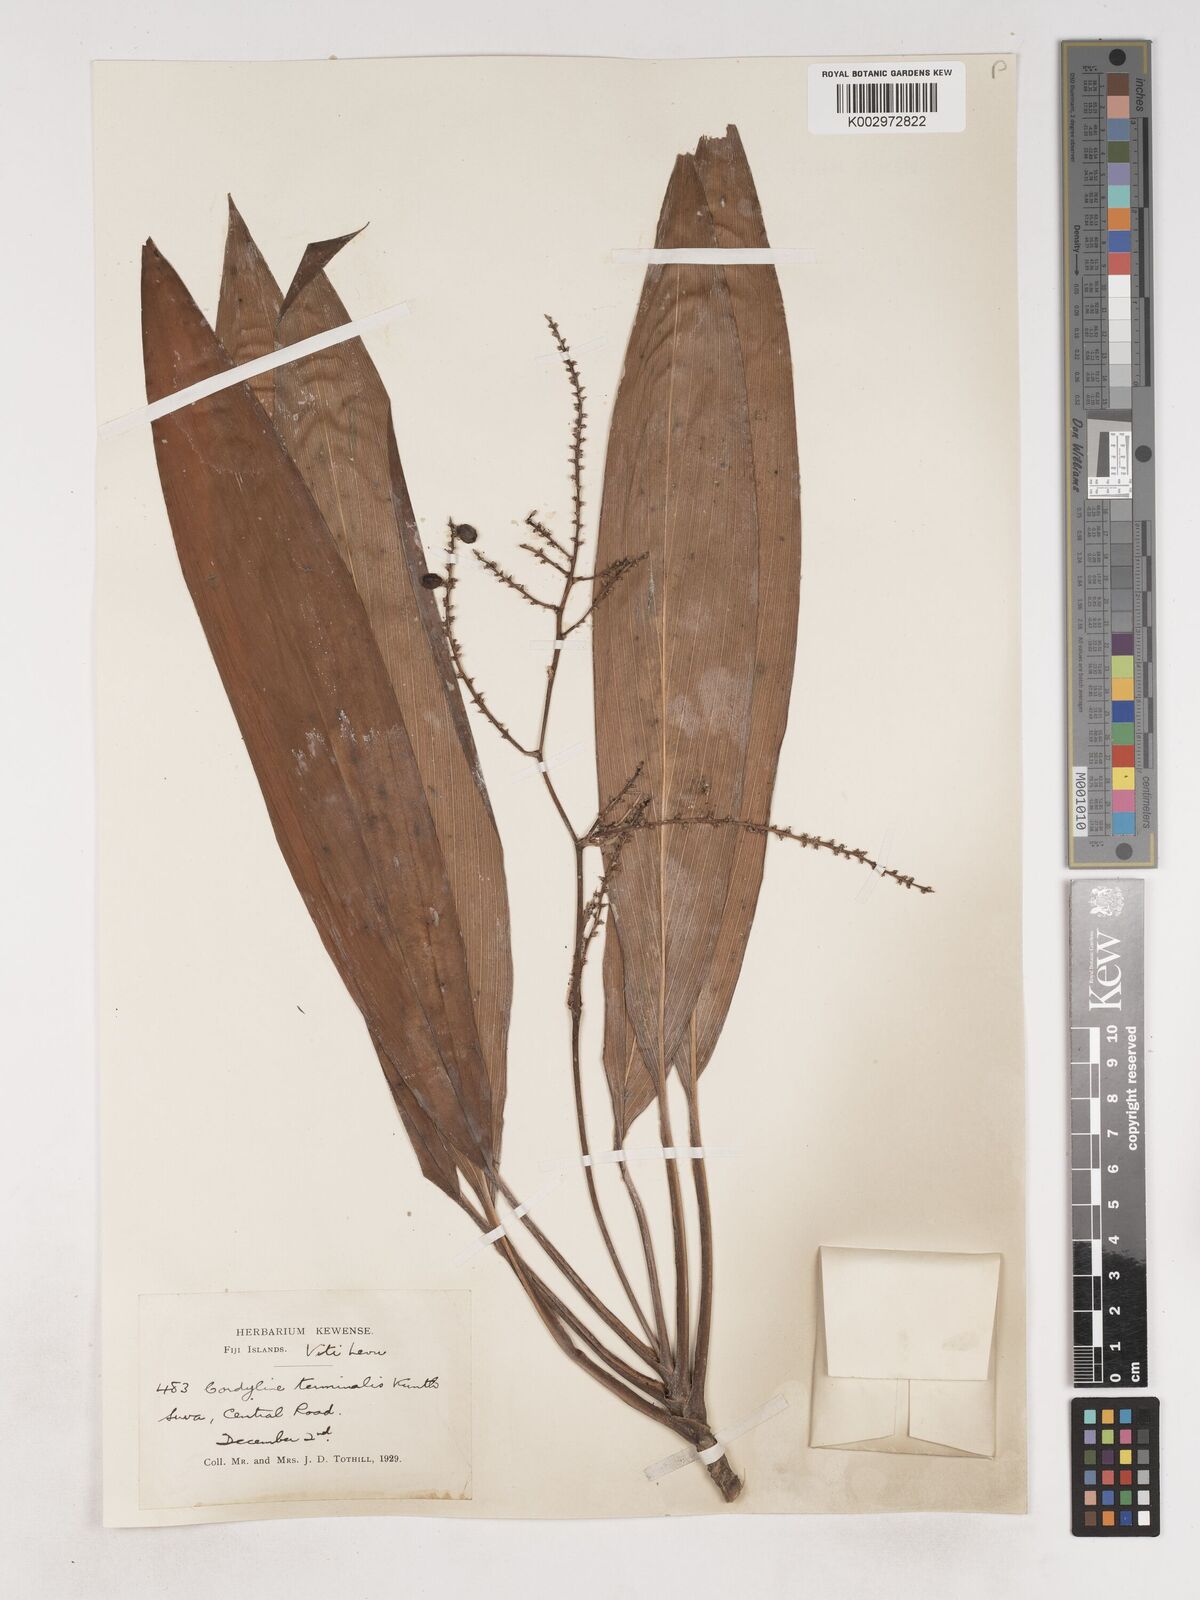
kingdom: Plantae
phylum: Tracheophyta
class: Liliopsida
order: Asparagales
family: Asparagaceae
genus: Cordyline
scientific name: Cordyline fruticosa
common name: Good-luck-plant
